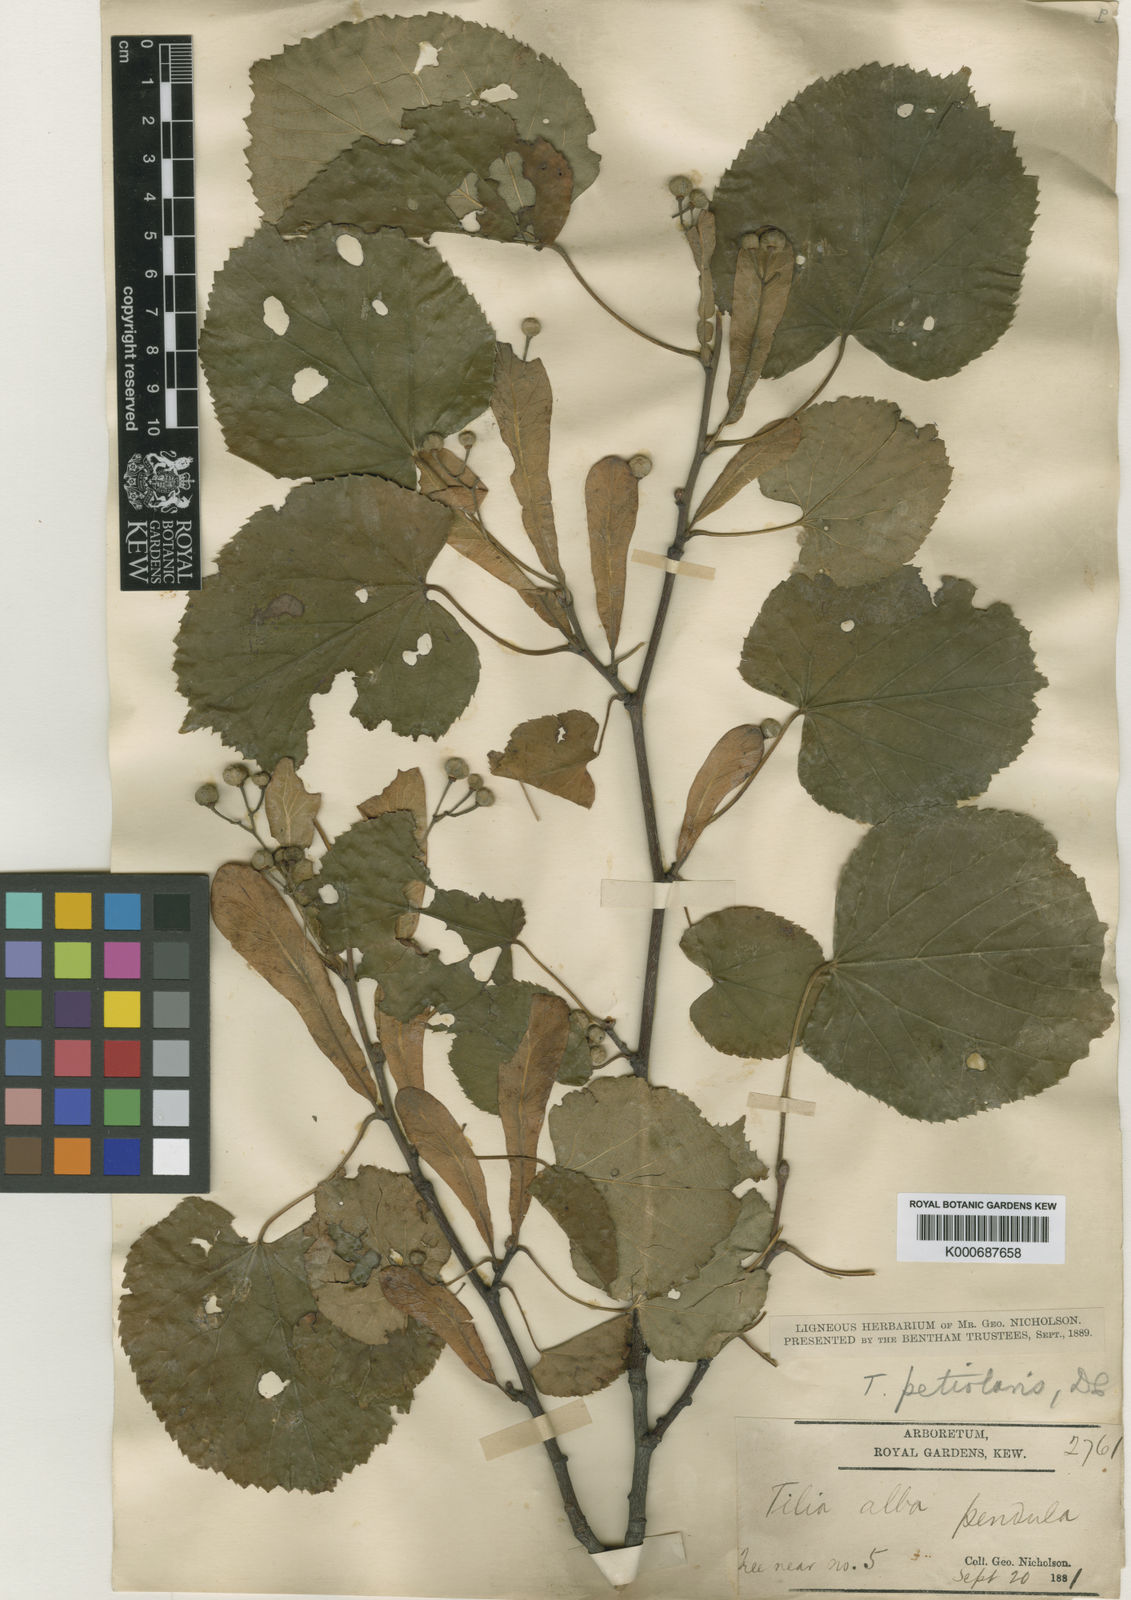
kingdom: Plantae
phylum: Tracheophyta
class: Magnoliopsida
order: Malvales
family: Malvaceae
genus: Tilia
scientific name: Tilia tomentosa
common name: Silver lime
